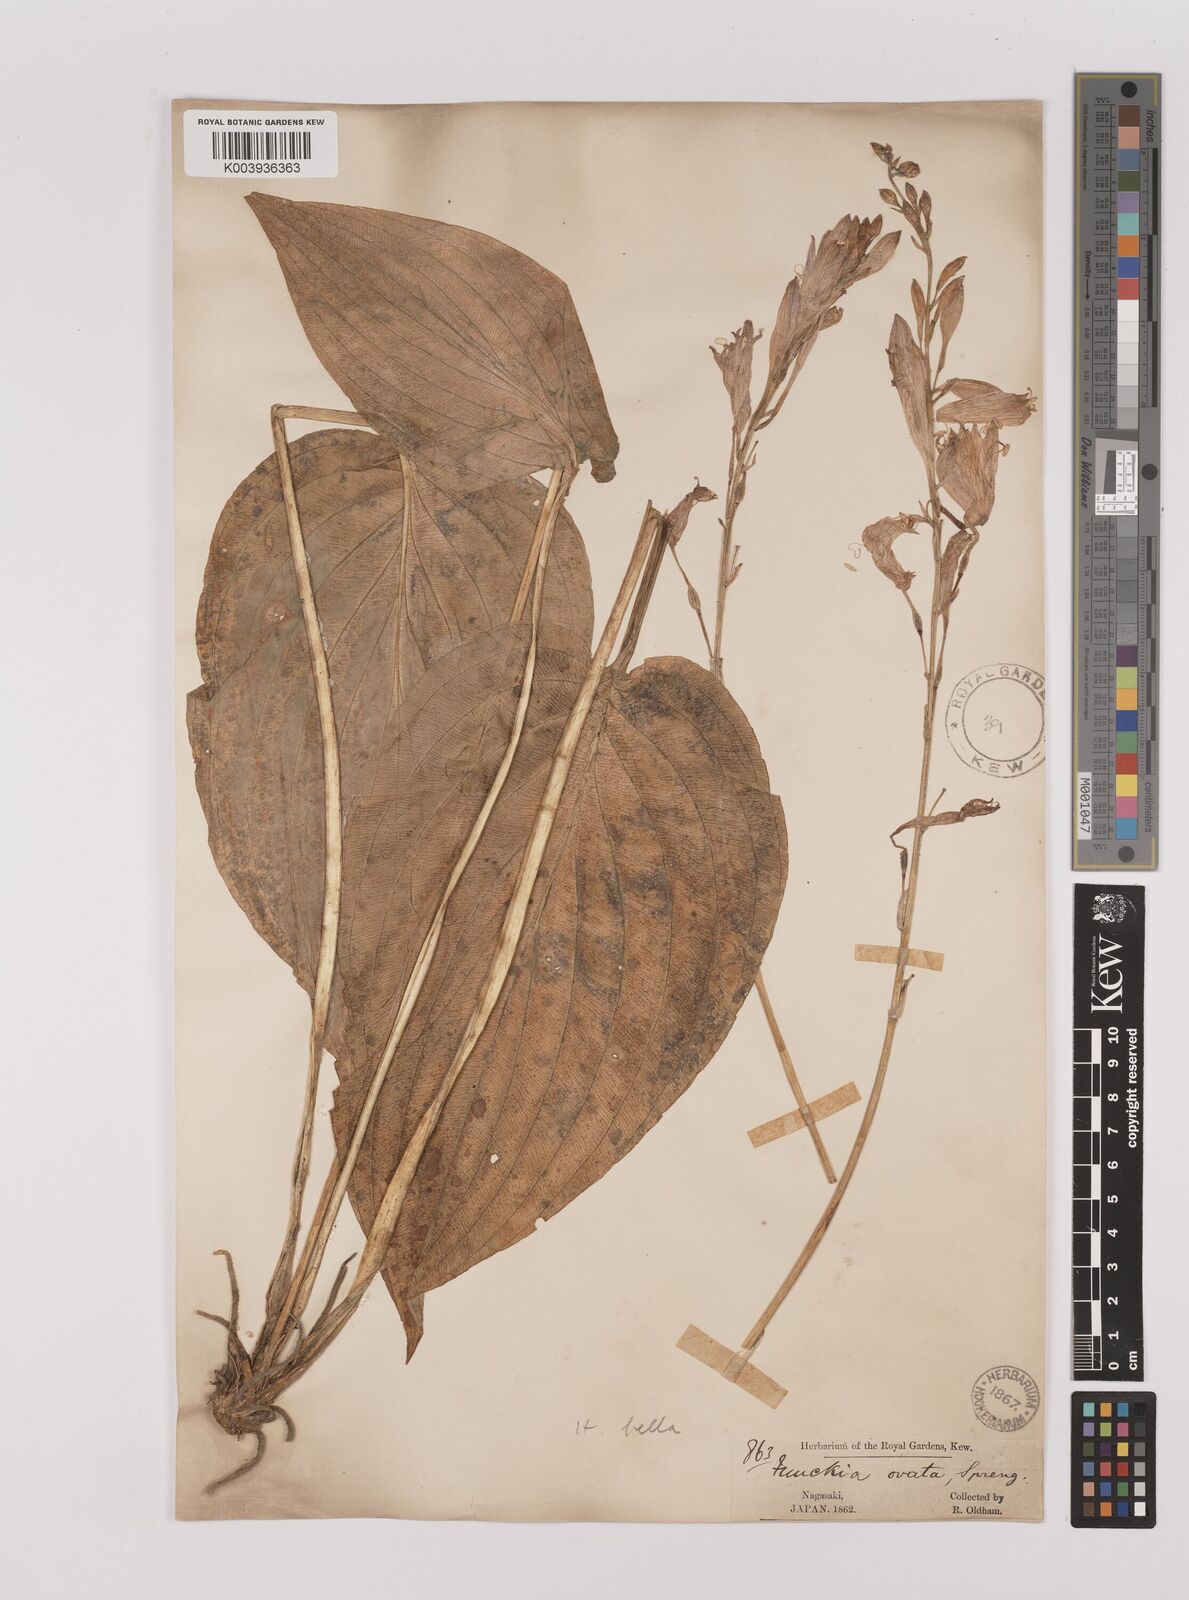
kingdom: Plantae
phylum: Tracheophyta
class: Liliopsida
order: Asparagales
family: Asparagaceae
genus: Hosta
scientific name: Hosta sieboldiana
